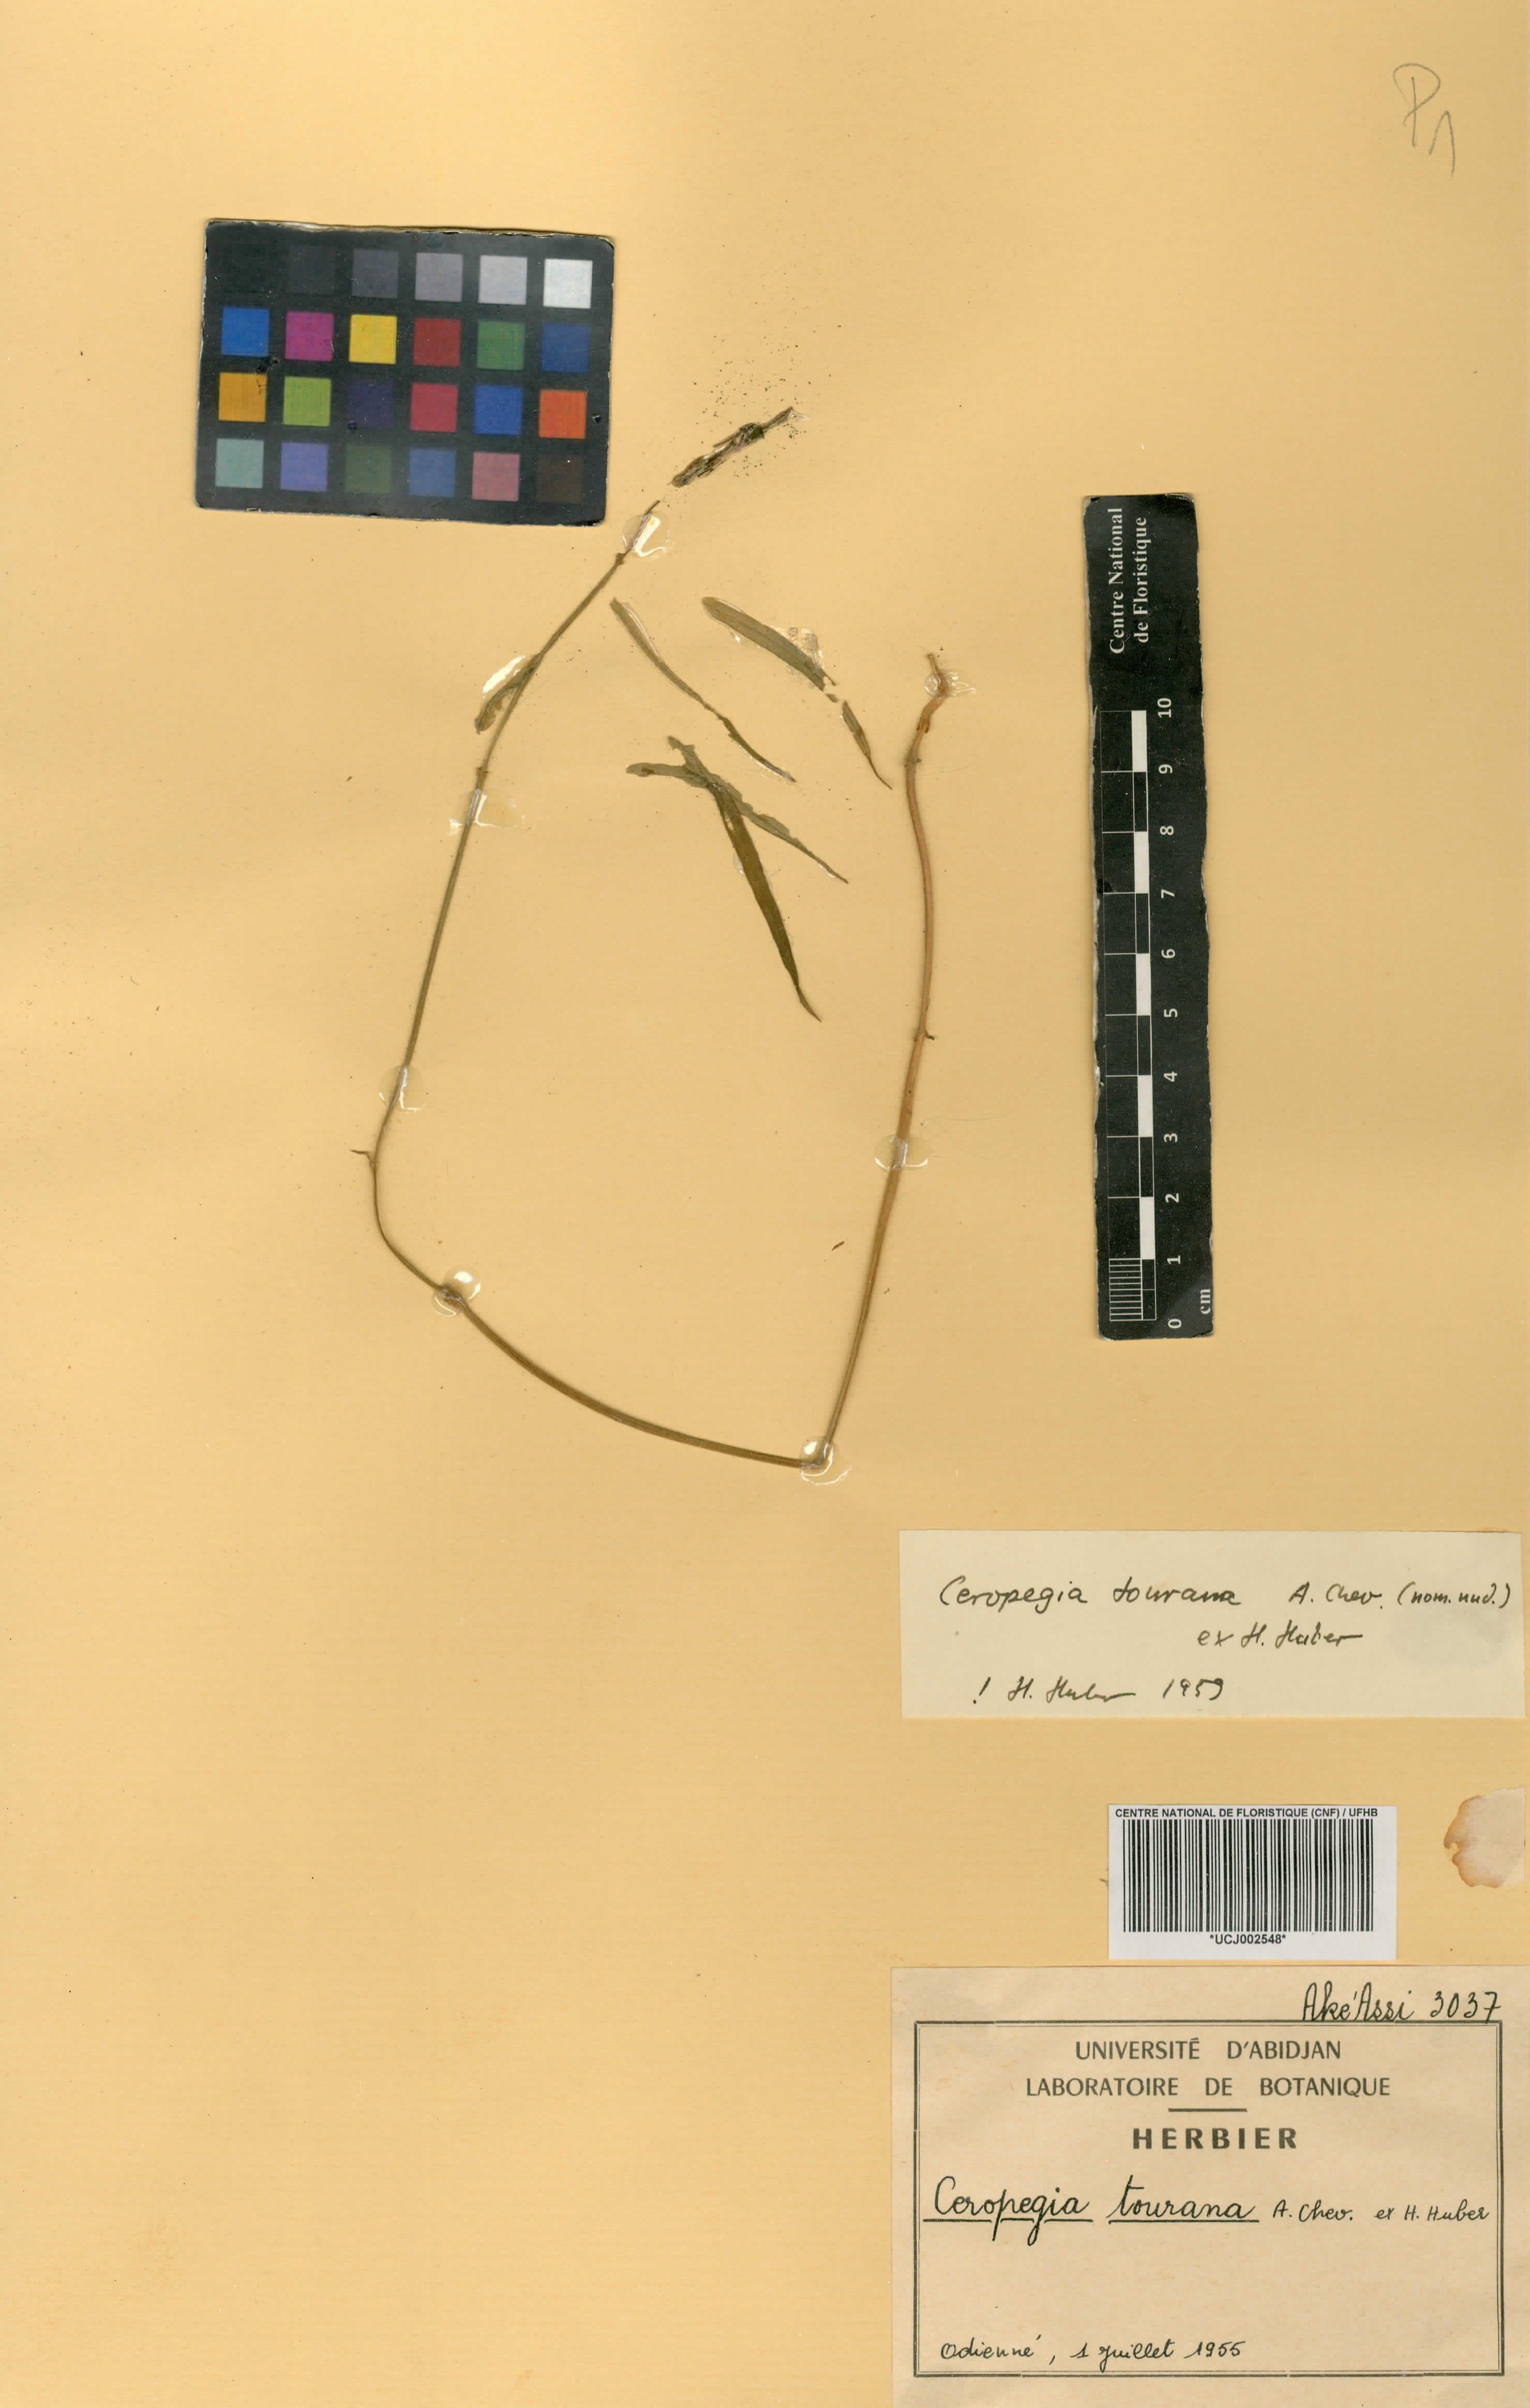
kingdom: Plantae
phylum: Tracheophyta
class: Magnoliopsida
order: Gentianales
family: Apocynaceae
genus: Ceropegia
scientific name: Ceropegia tourana
